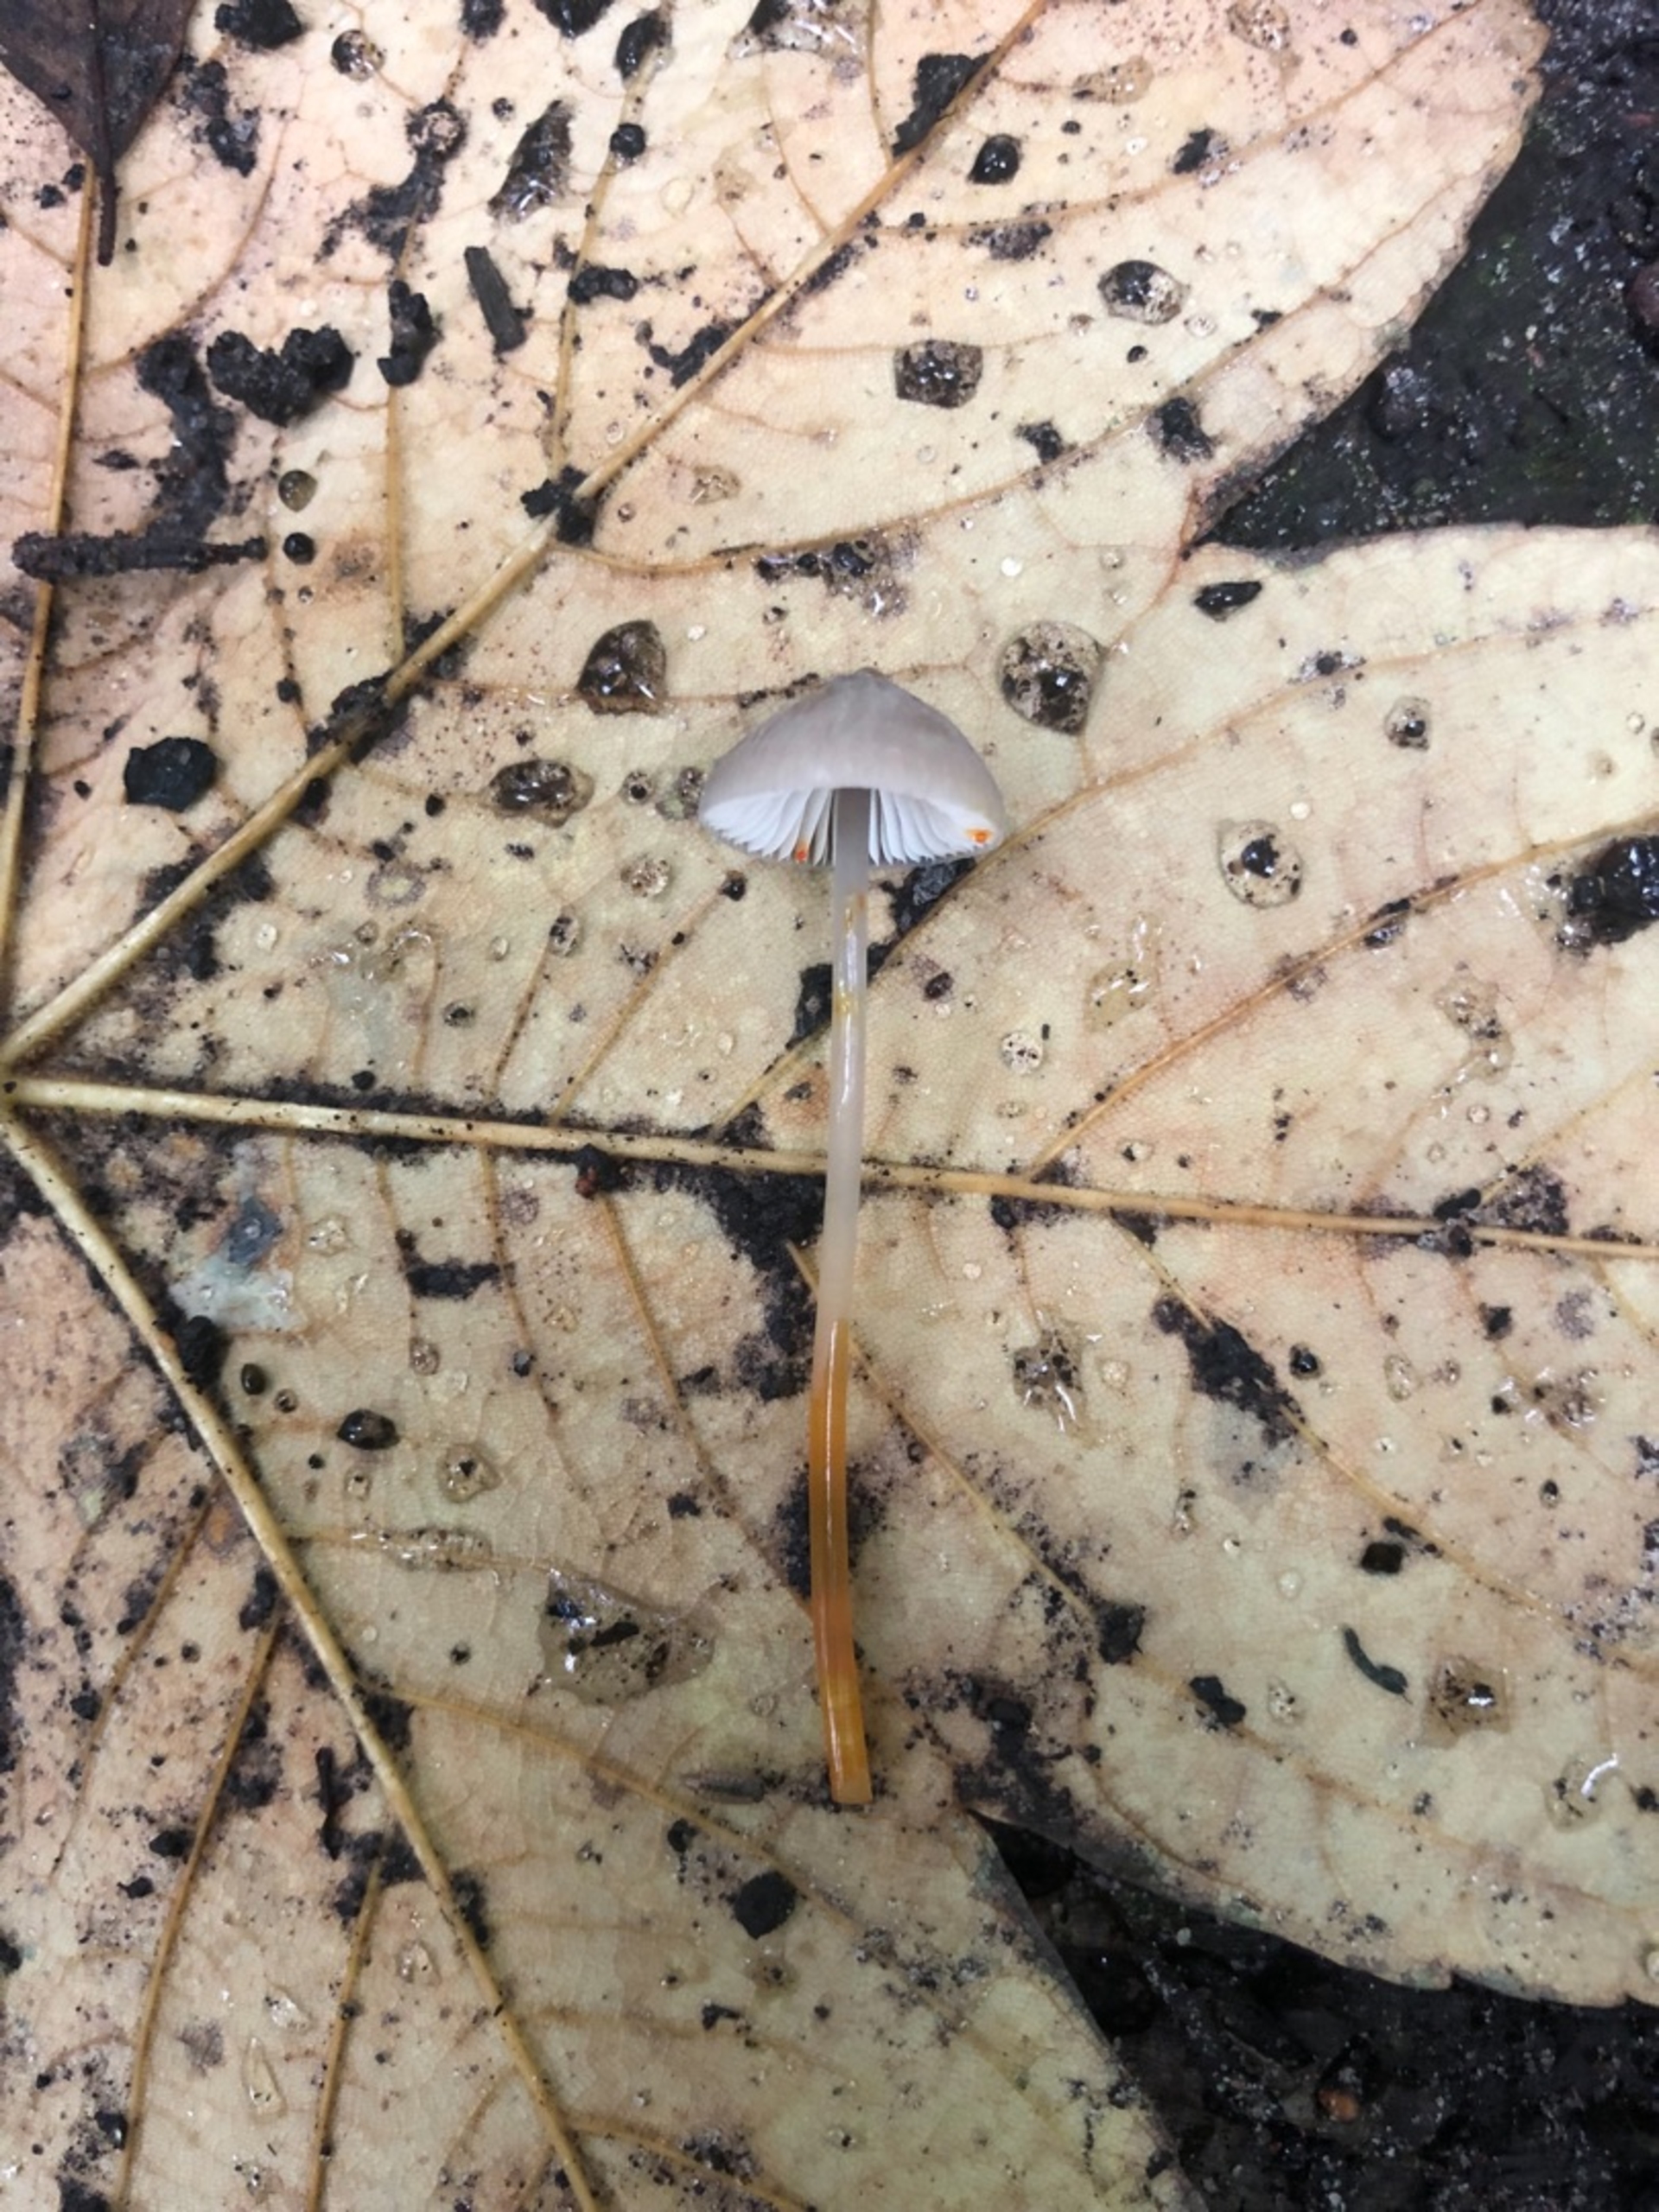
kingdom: Fungi
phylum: Basidiomycota
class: Agaricomycetes
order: Agaricales
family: Mycenaceae
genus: Mycena
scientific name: Mycena crocata
